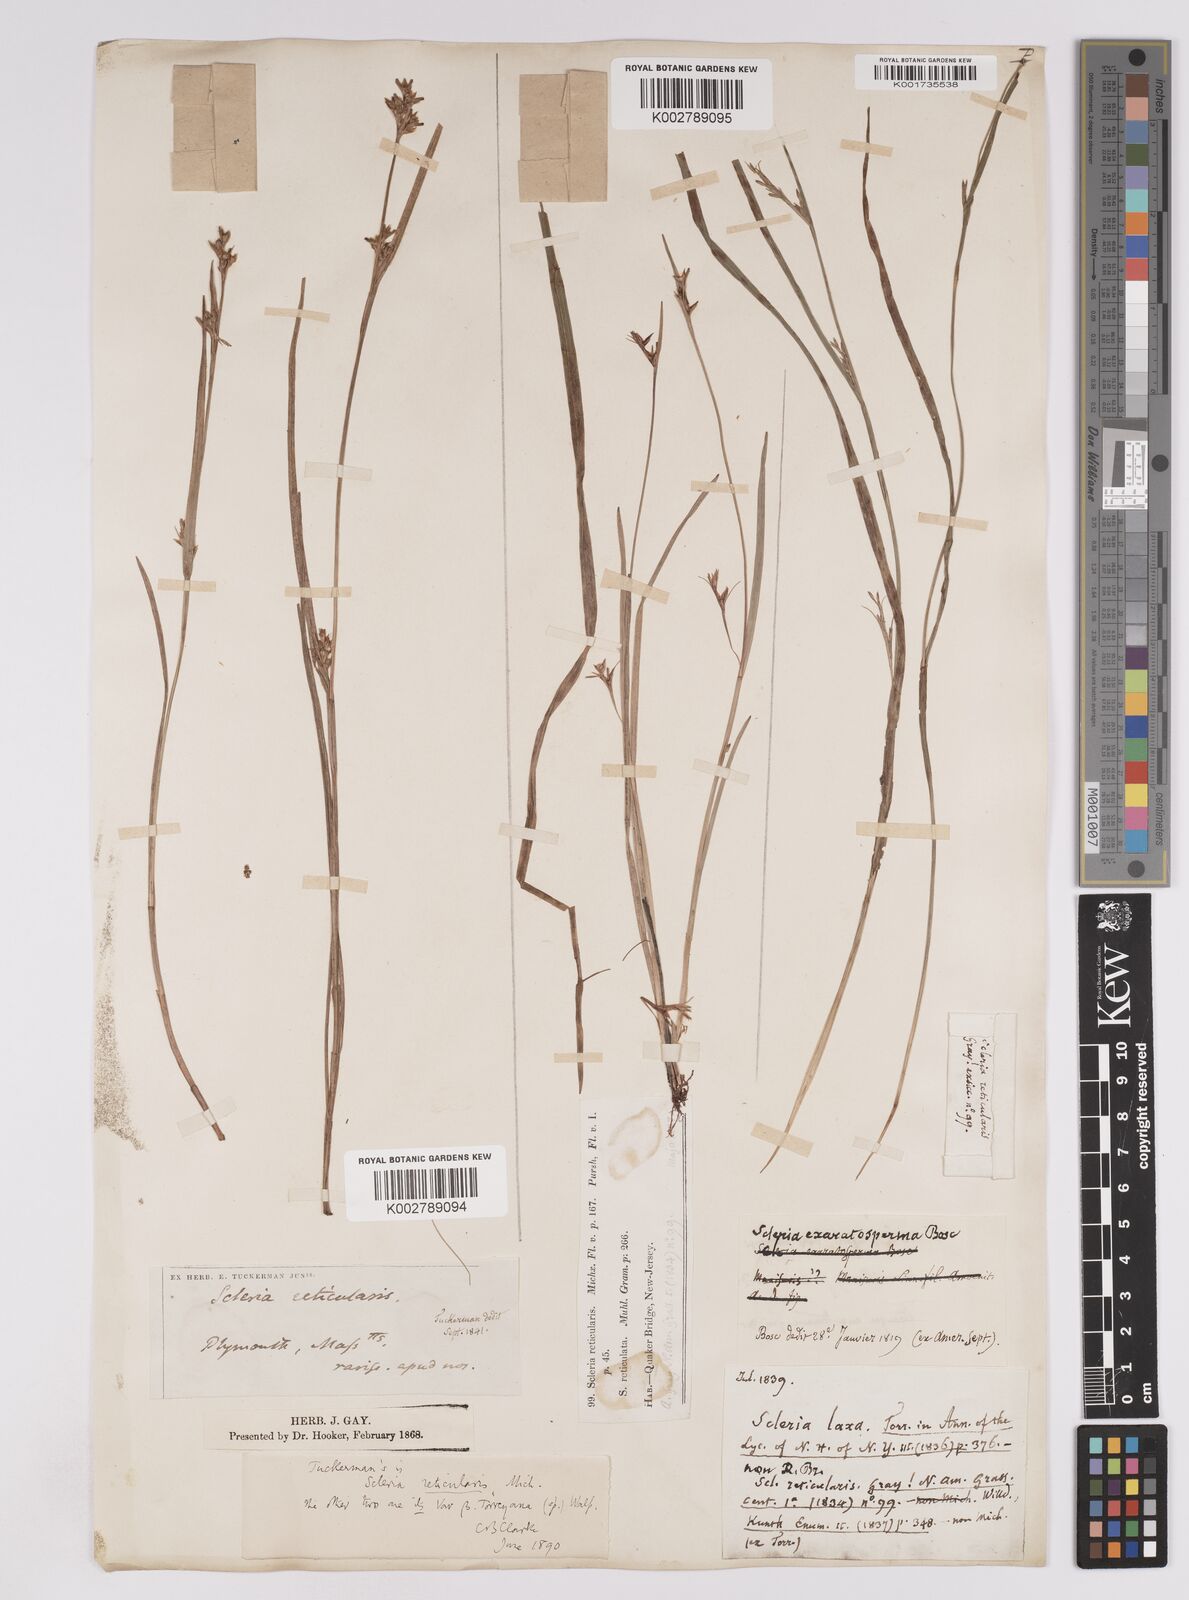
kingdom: Plantae
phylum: Tracheophyta
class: Liliopsida
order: Poales
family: Cyperaceae
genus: Scleria
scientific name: Scleria muehlenbergii
